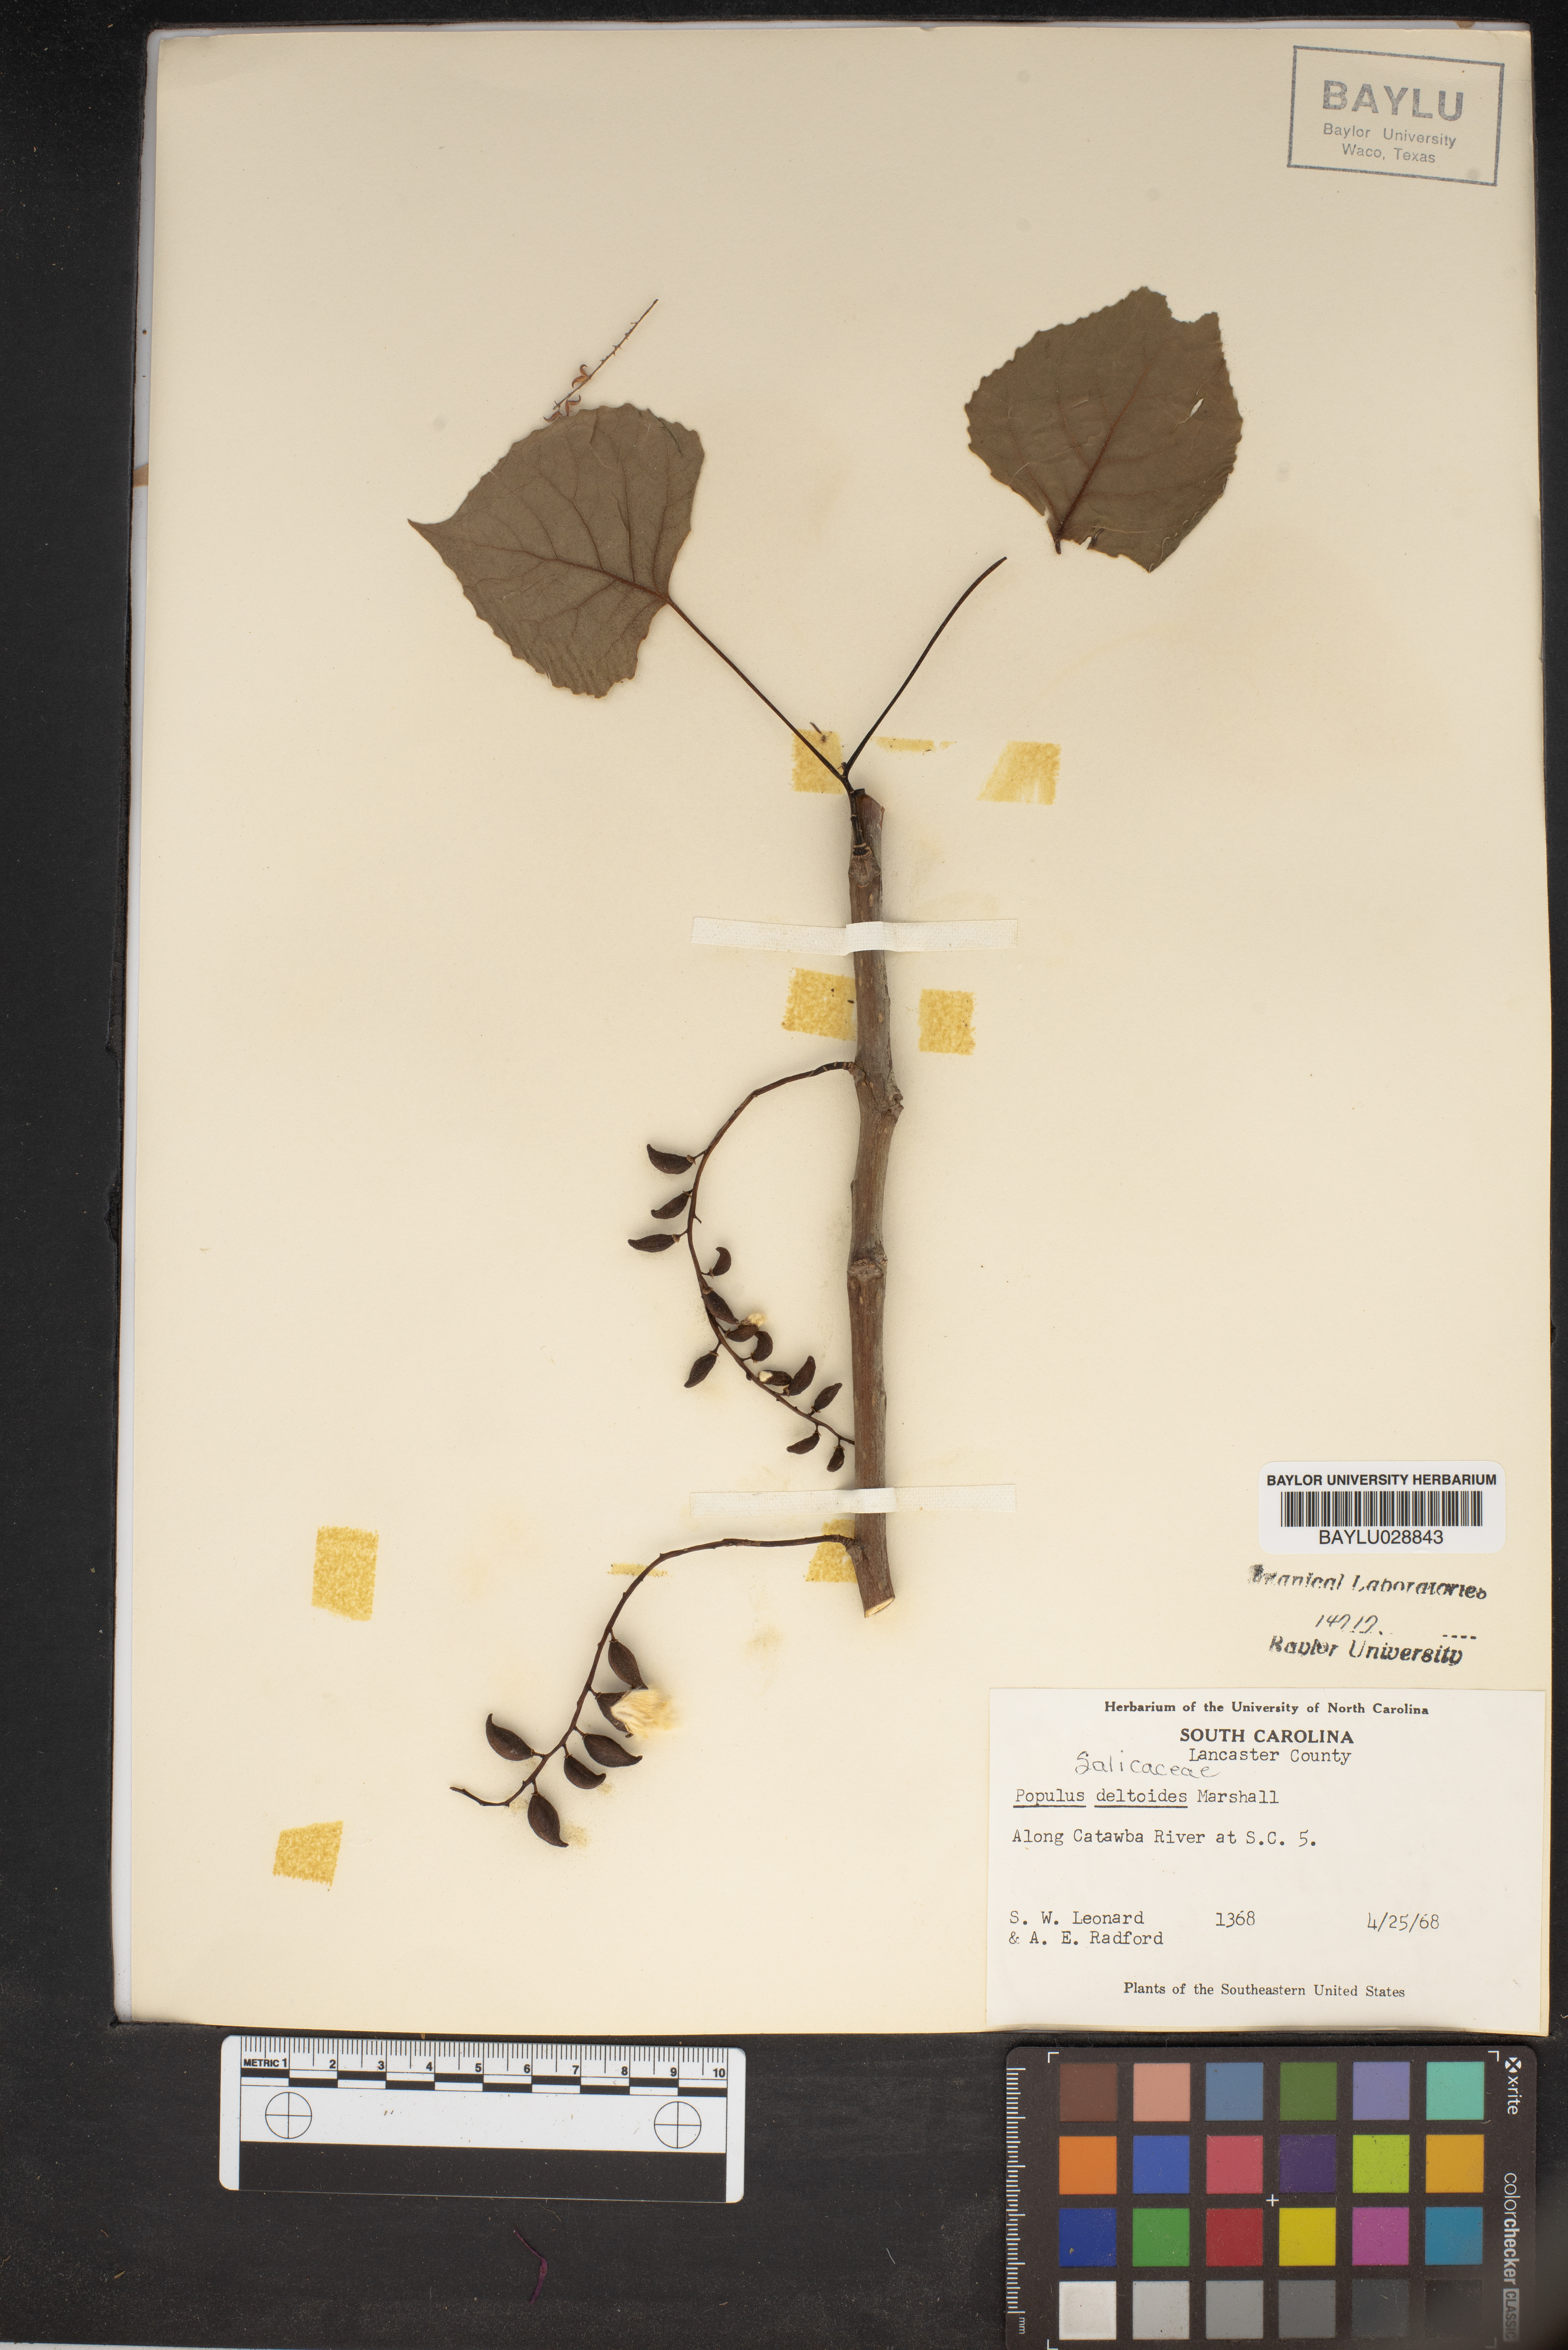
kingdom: Plantae
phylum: Tracheophyta
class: Magnoliopsida
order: Malpighiales
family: Salicaceae
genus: Populus
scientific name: Populus deltoides
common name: Eastern cottonwood
